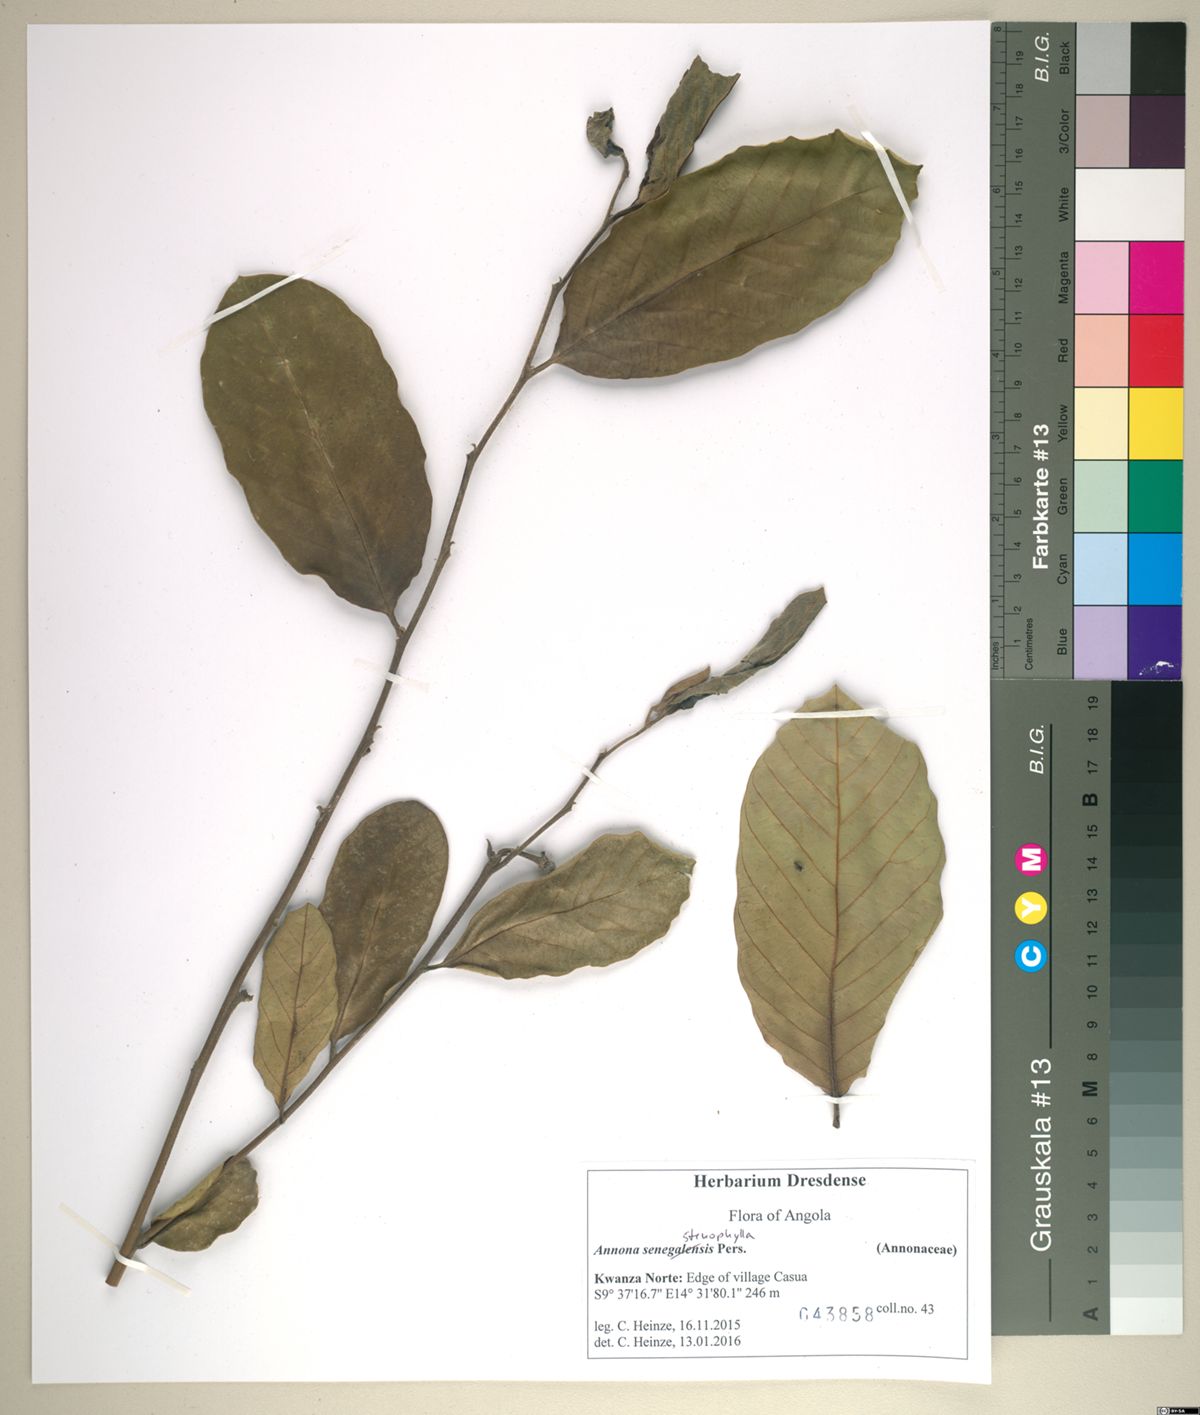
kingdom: Plantae
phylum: Tracheophyta
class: Magnoliopsida
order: Magnoliales
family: Annonaceae
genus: Annona
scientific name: Annona stenophylla
